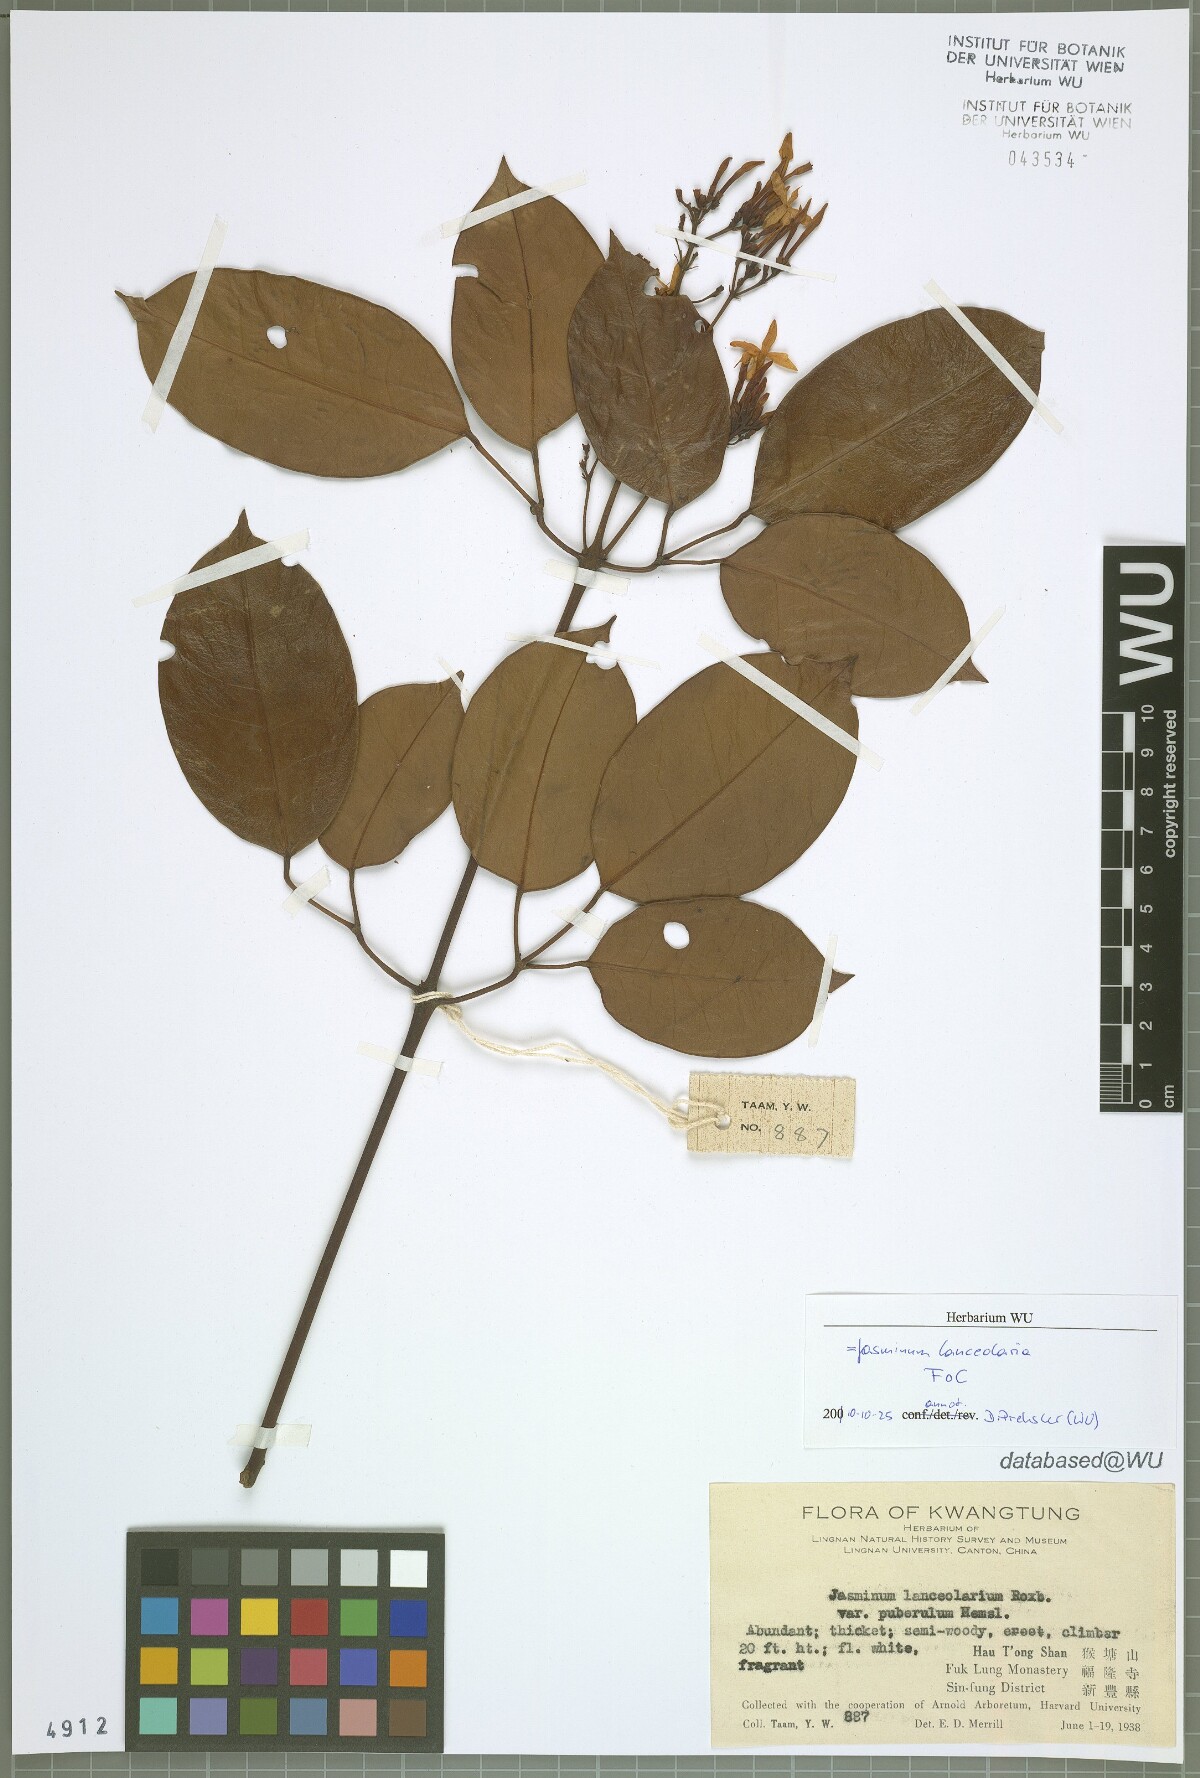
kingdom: Plantae
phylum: Tracheophyta
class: Magnoliopsida
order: Lamiales
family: Oleaceae
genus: Jasminum
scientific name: Jasminum lanceolaria
